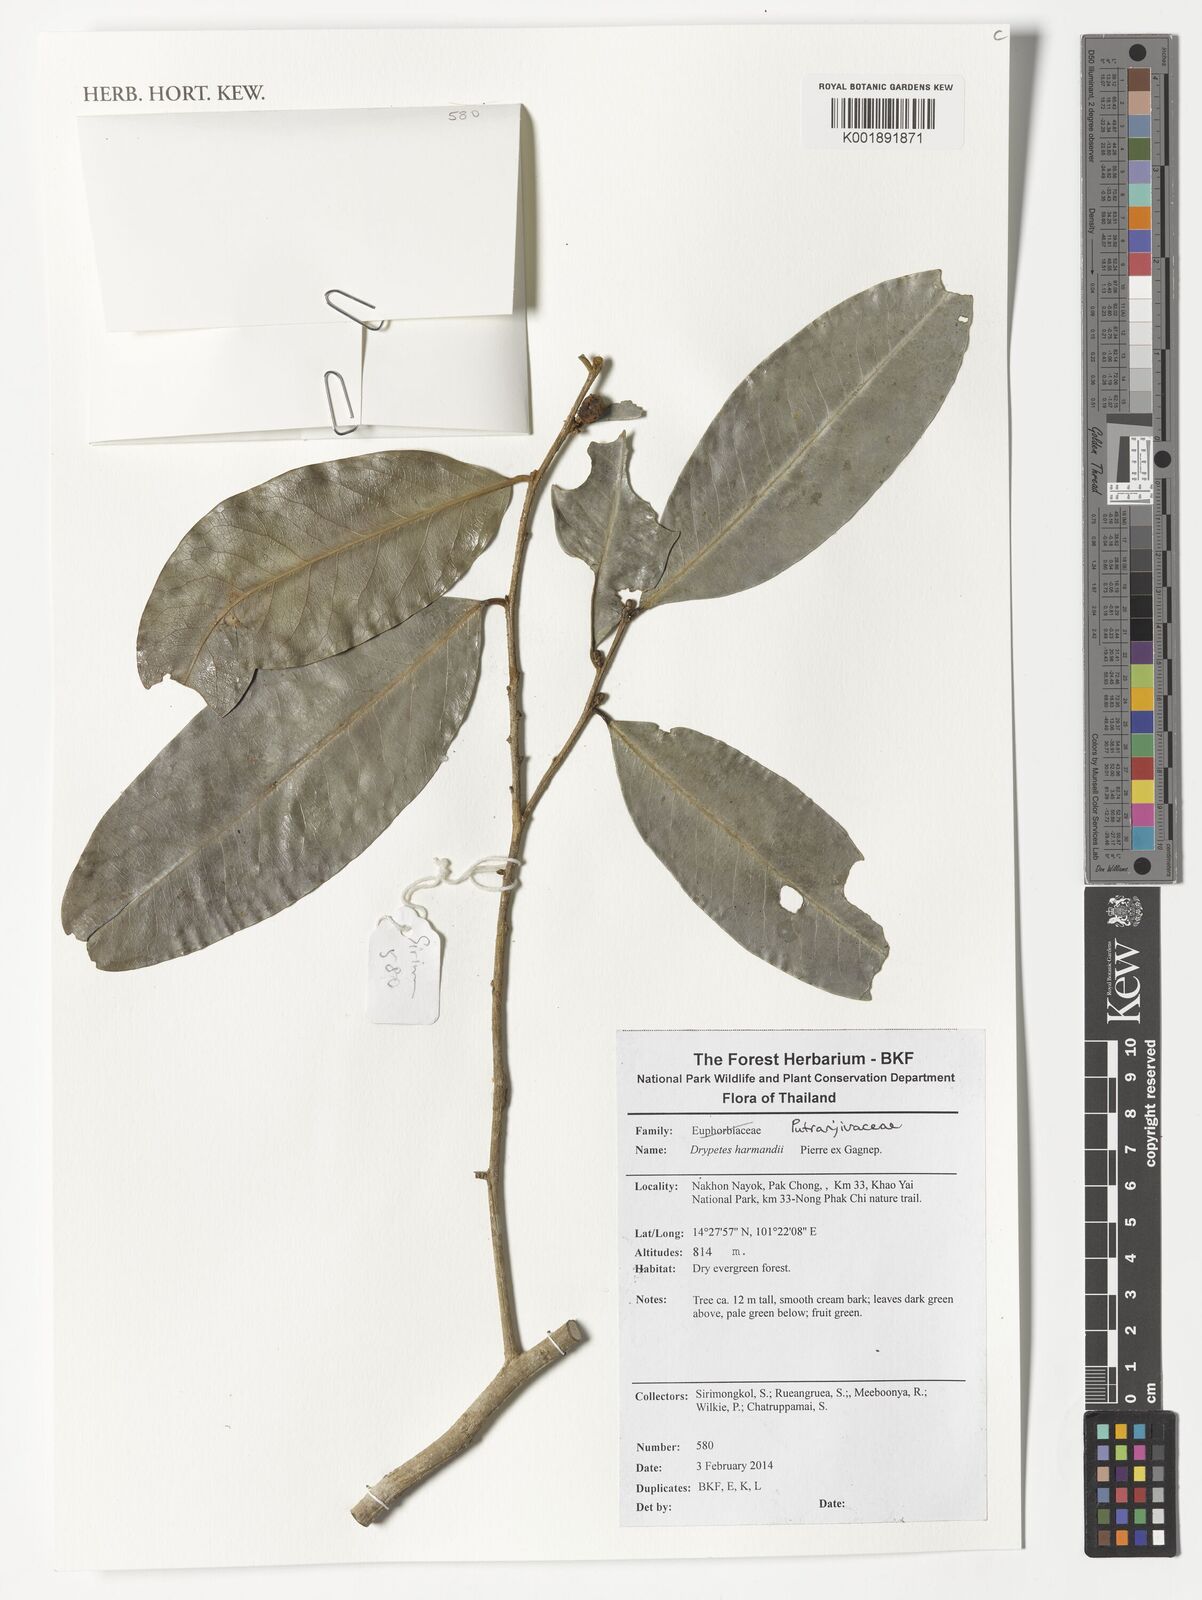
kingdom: Plantae
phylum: Tracheophyta
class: Magnoliopsida
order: Malpighiales
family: Putranjivaceae
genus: Drypetes
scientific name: Drypetes harmandii
